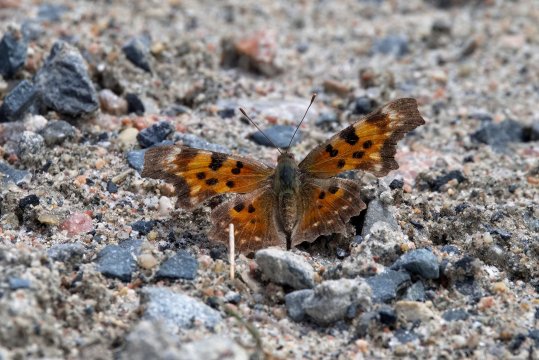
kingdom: Animalia
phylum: Arthropoda
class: Insecta
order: Lepidoptera
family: Nymphalidae
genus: Polygonia
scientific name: Polygonia faunus
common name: Green Comma
